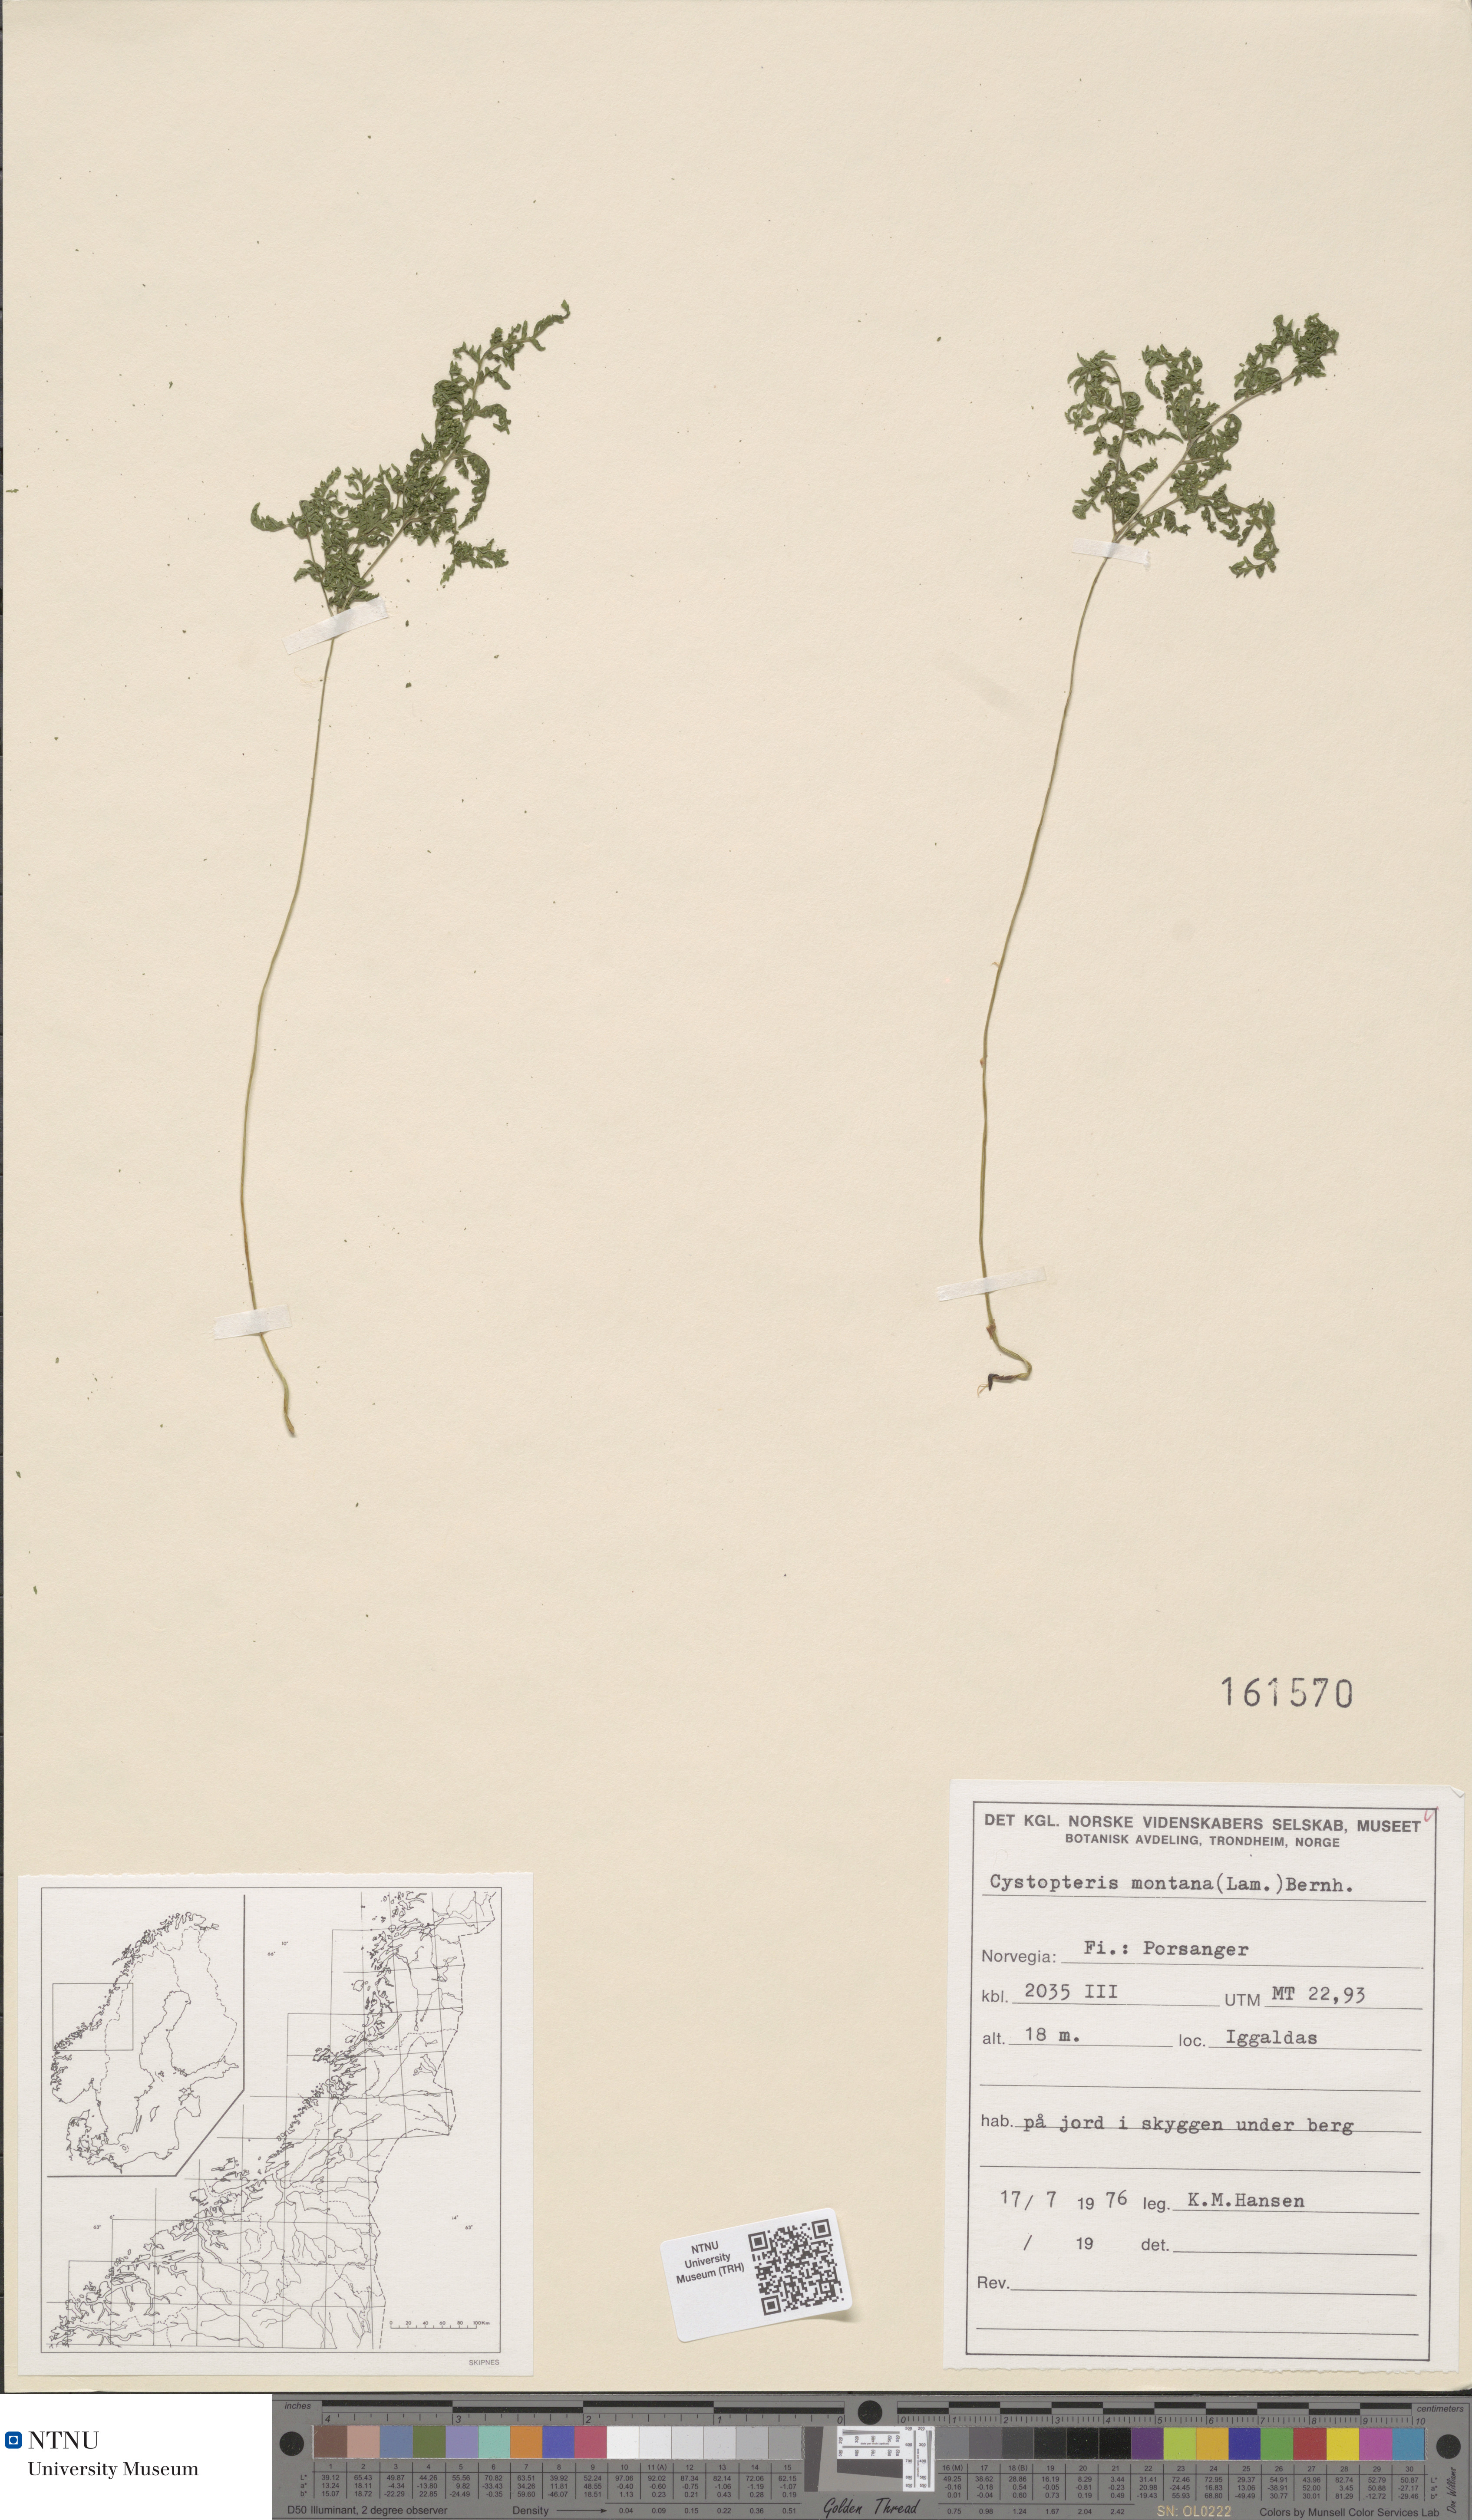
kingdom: Plantae
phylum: Tracheophyta
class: Polypodiopsida
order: Polypodiales
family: Cystopteridaceae
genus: Cystopteris
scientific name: Cystopteris montana
